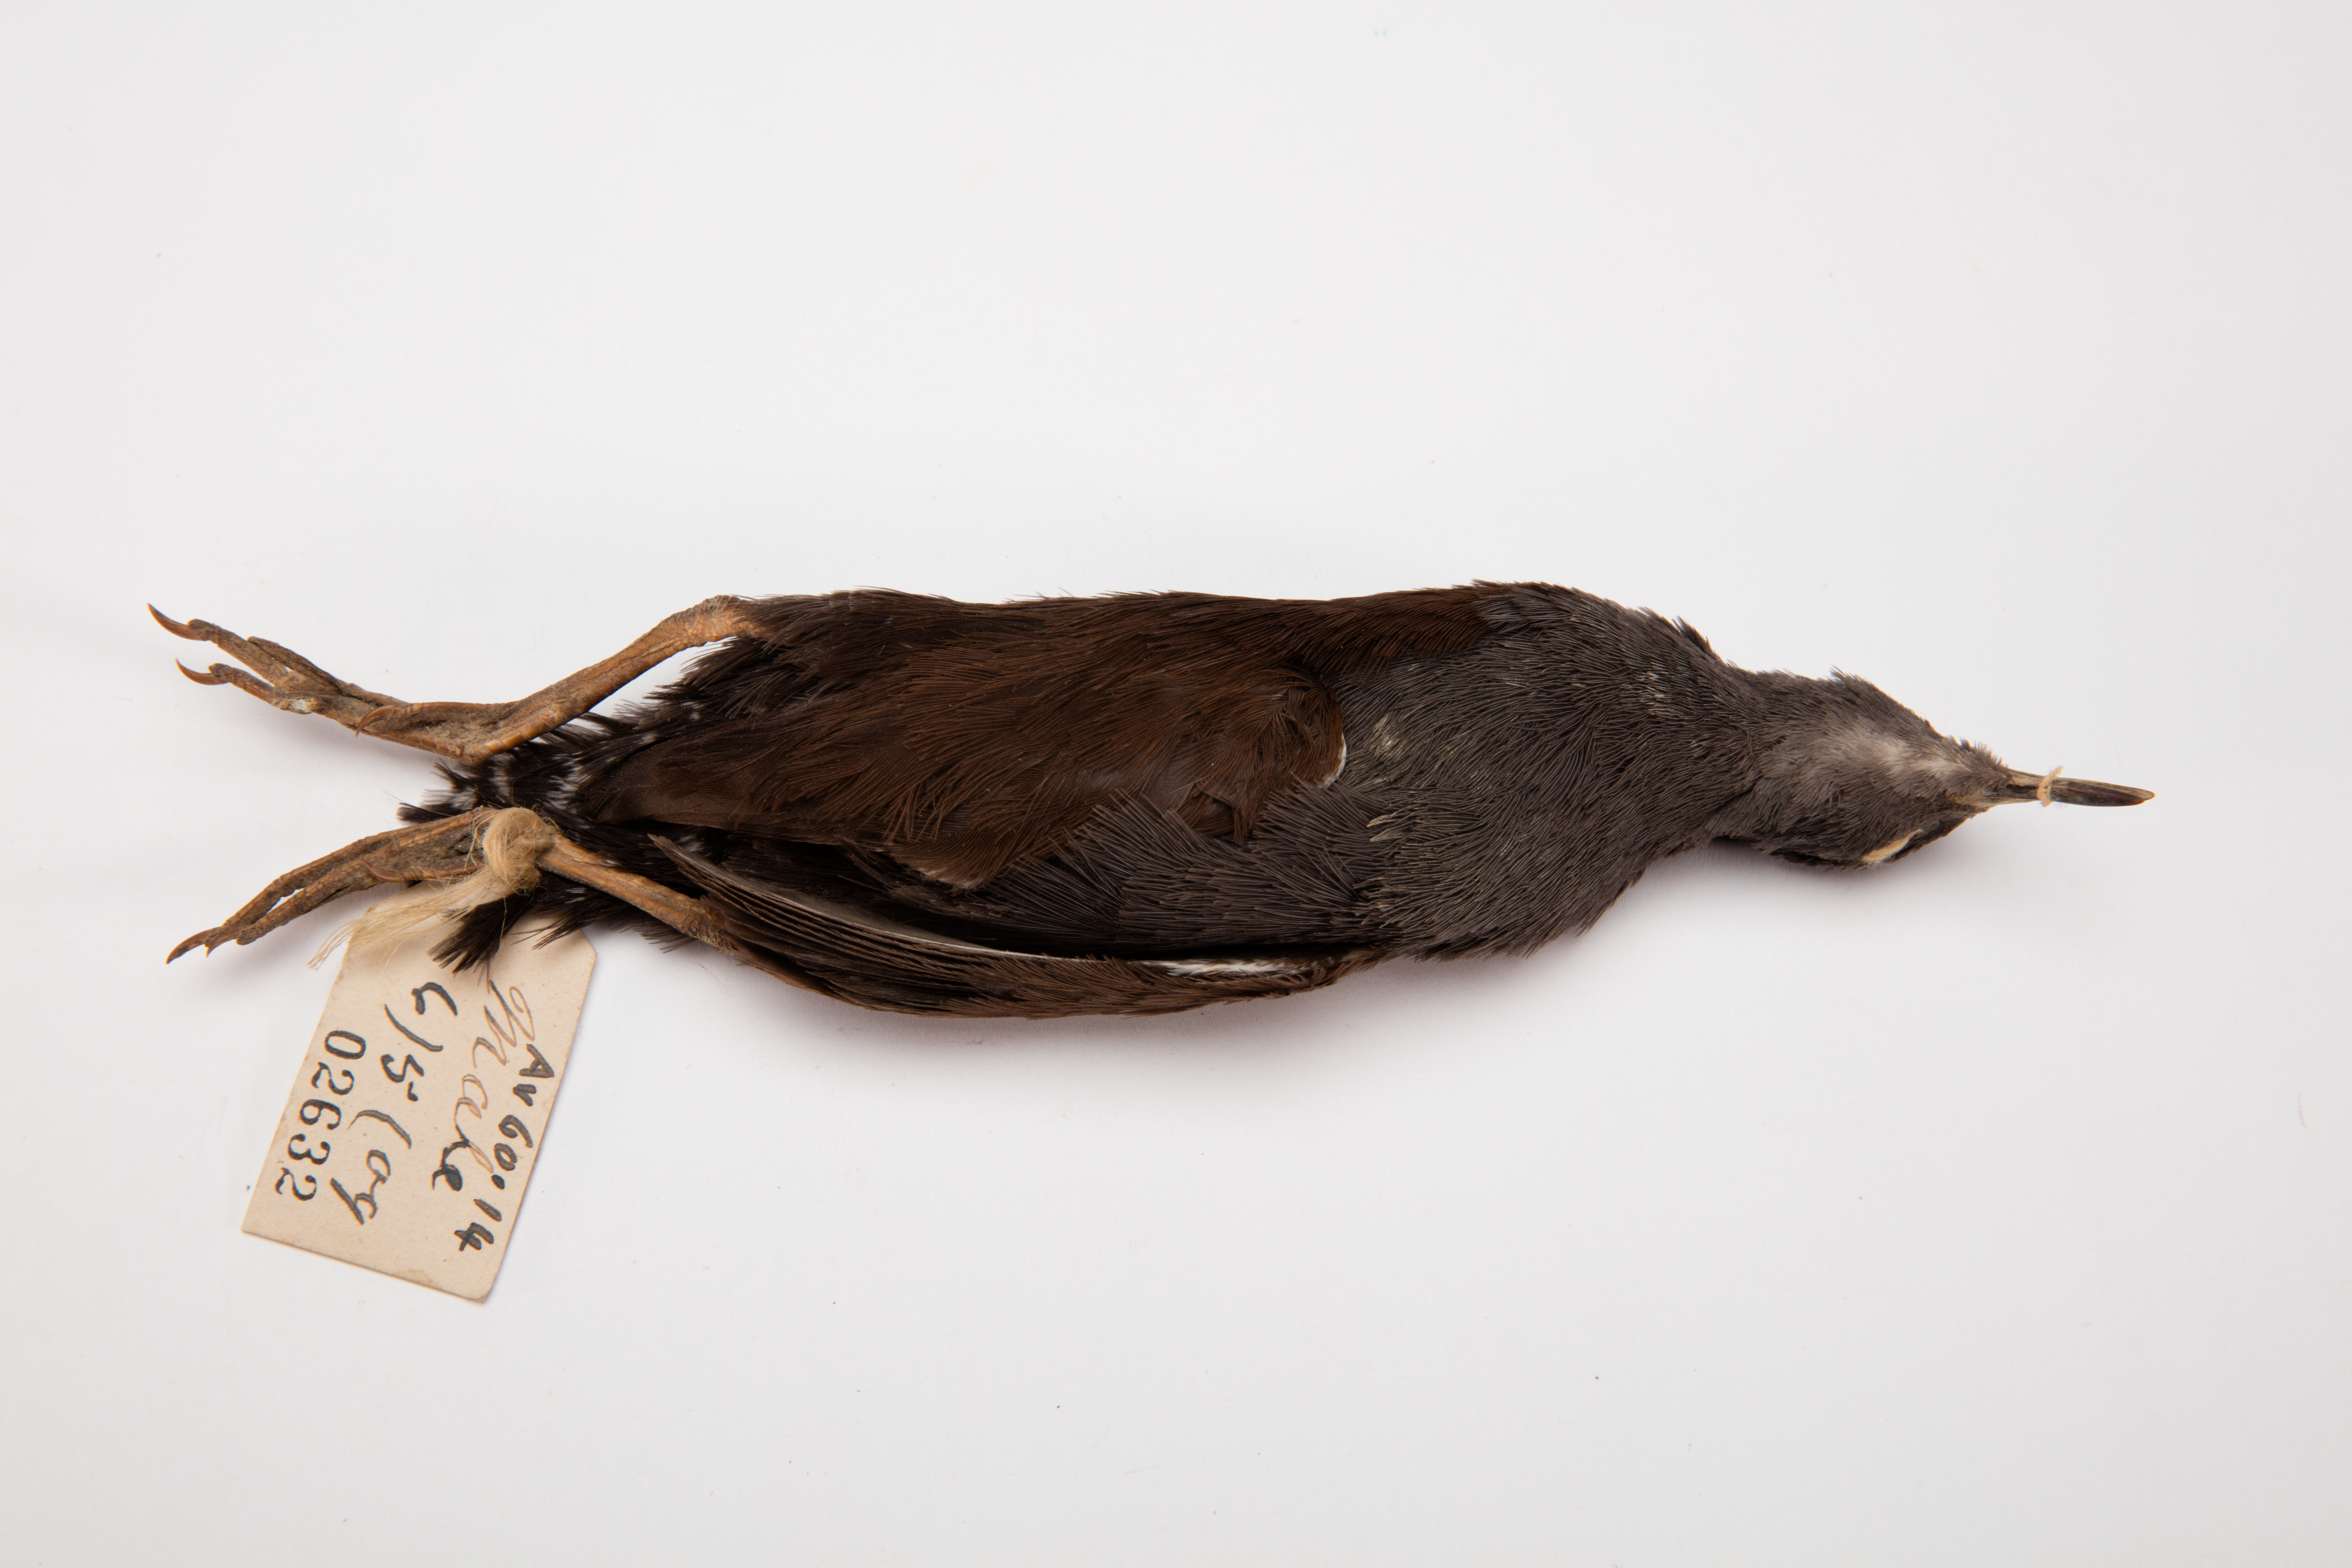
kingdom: Animalia
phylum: Chordata
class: Aves
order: Gruiformes
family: Rallidae
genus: Porzana
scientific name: Porzana tabuensis
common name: Spotless crake
